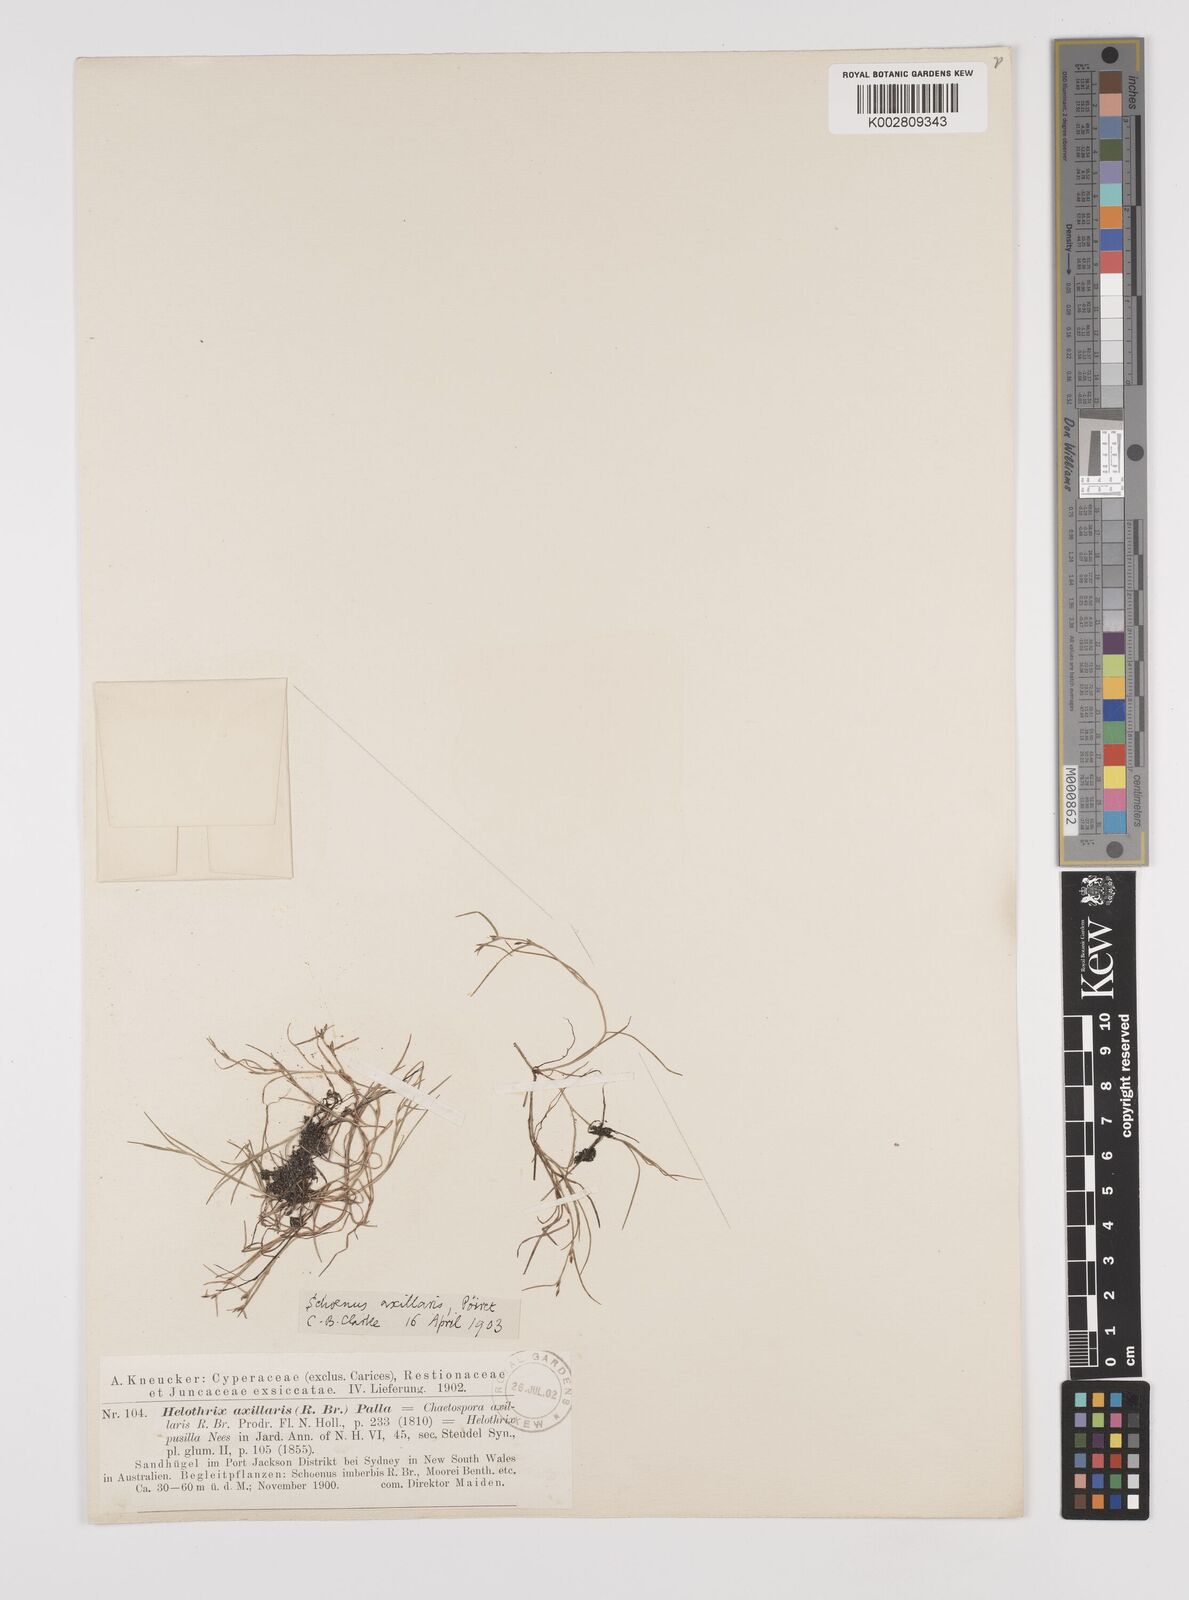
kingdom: Plantae
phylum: Tracheophyta
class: Liliopsida
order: Poales
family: Cyperaceae
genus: Schoenus
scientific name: Schoenus maschalinus
